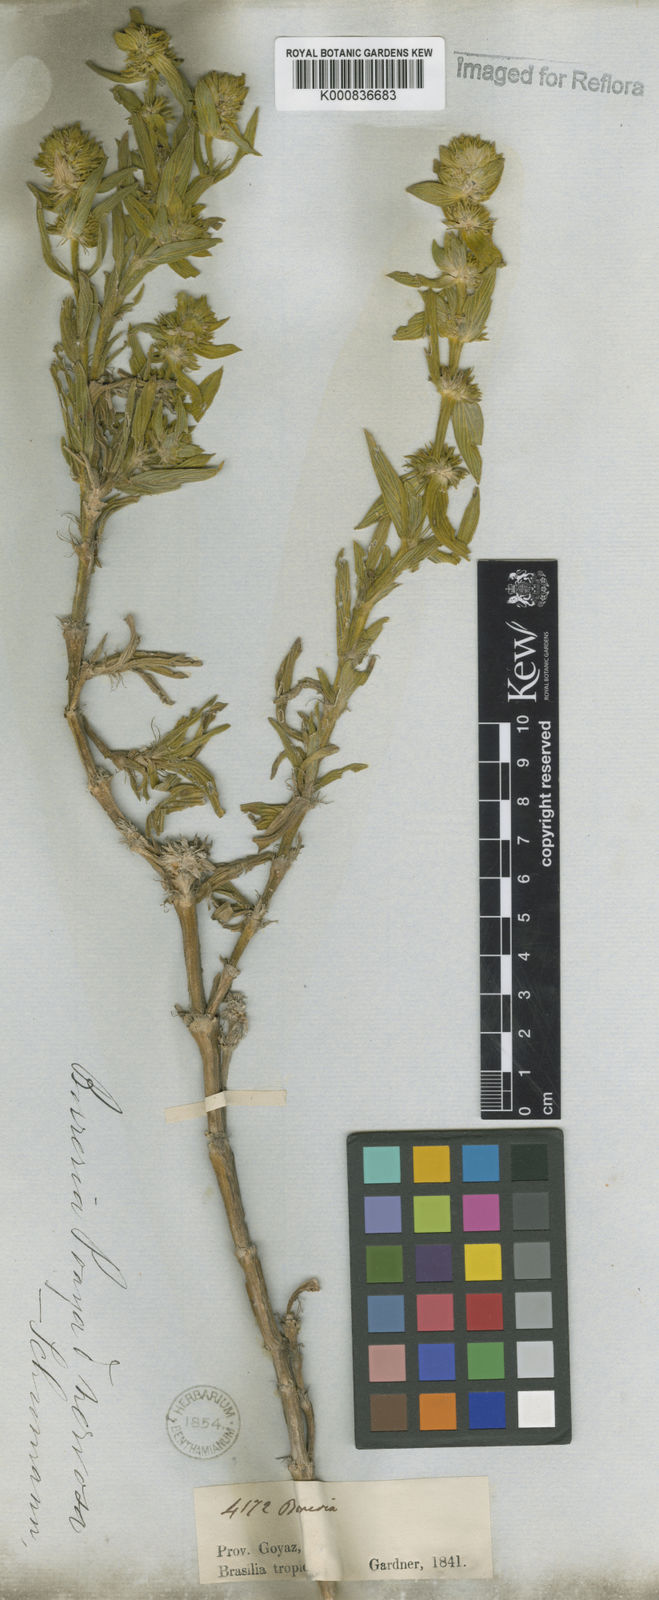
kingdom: Plantae
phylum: Tracheophyta
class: Magnoliopsida
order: Gentianales
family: Rubiaceae
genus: Spermacoce
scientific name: Spermacoce poaya
